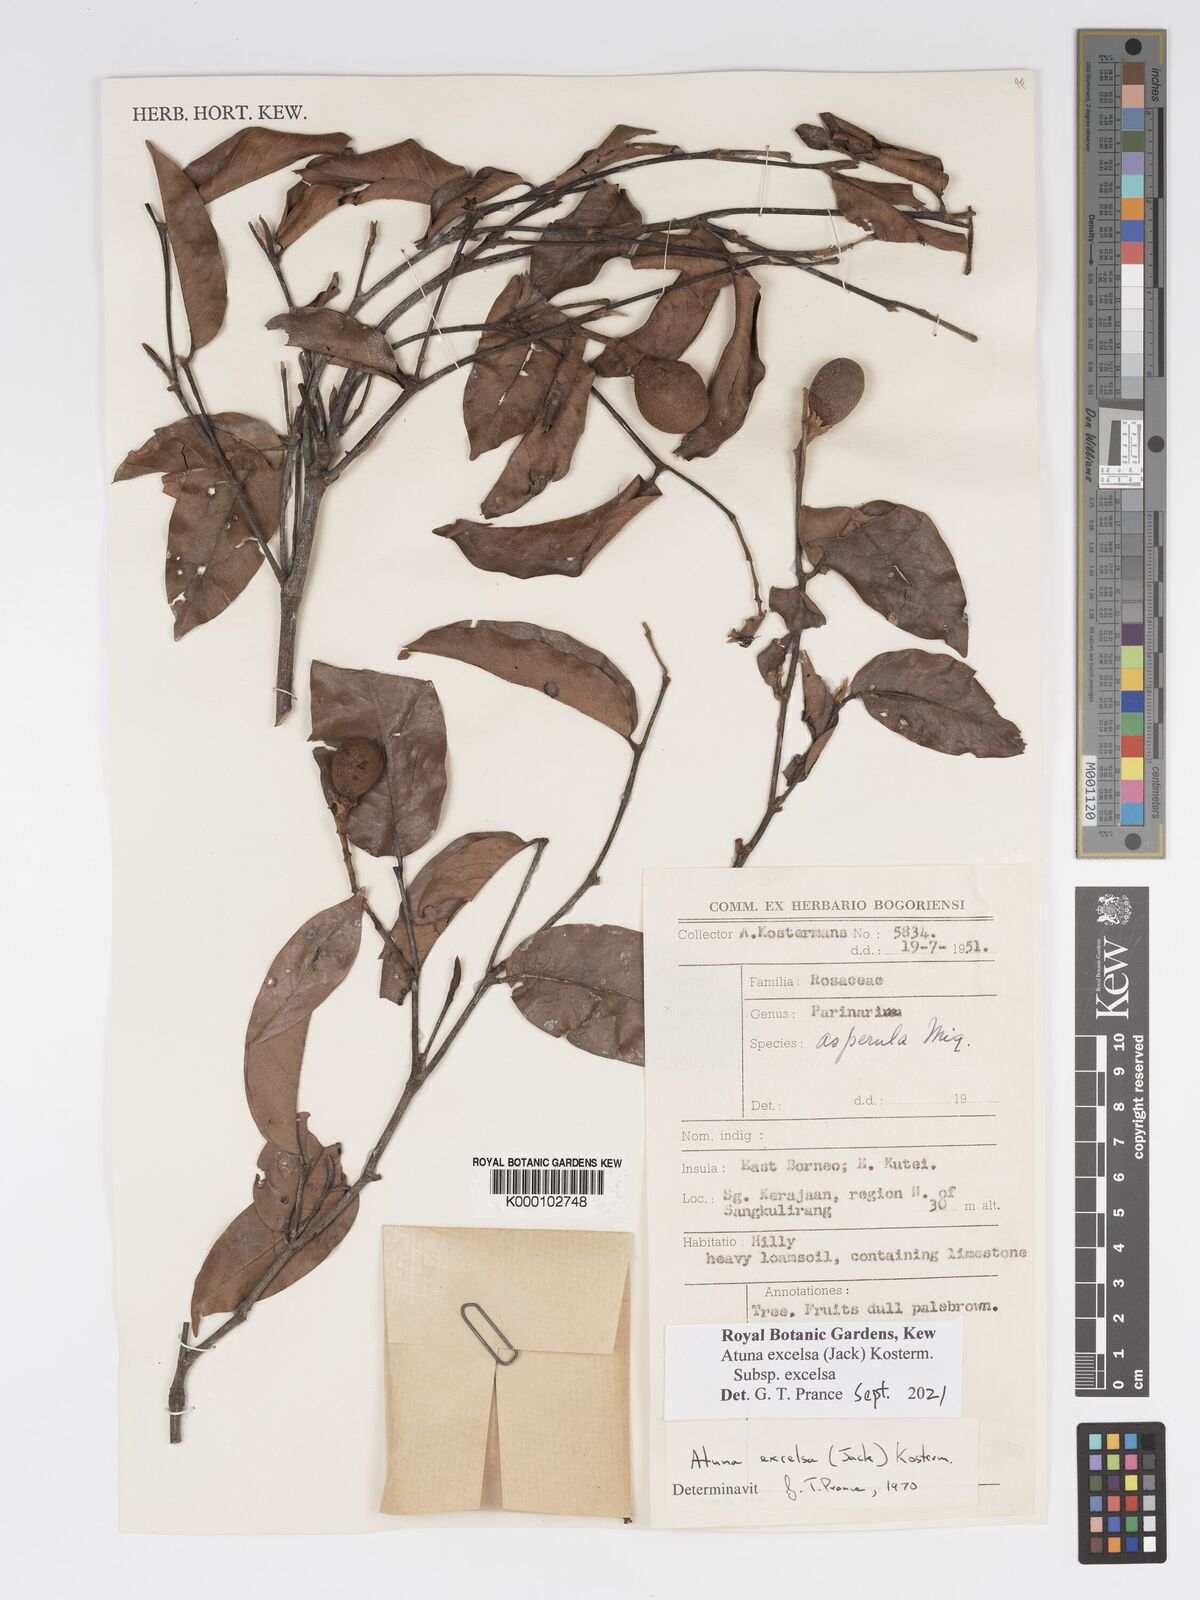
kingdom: Plantae
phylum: Tracheophyta
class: Magnoliopsida
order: Malpighiales
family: Chrysobalanaceae
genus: Atuna
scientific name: Atuna excelsa
